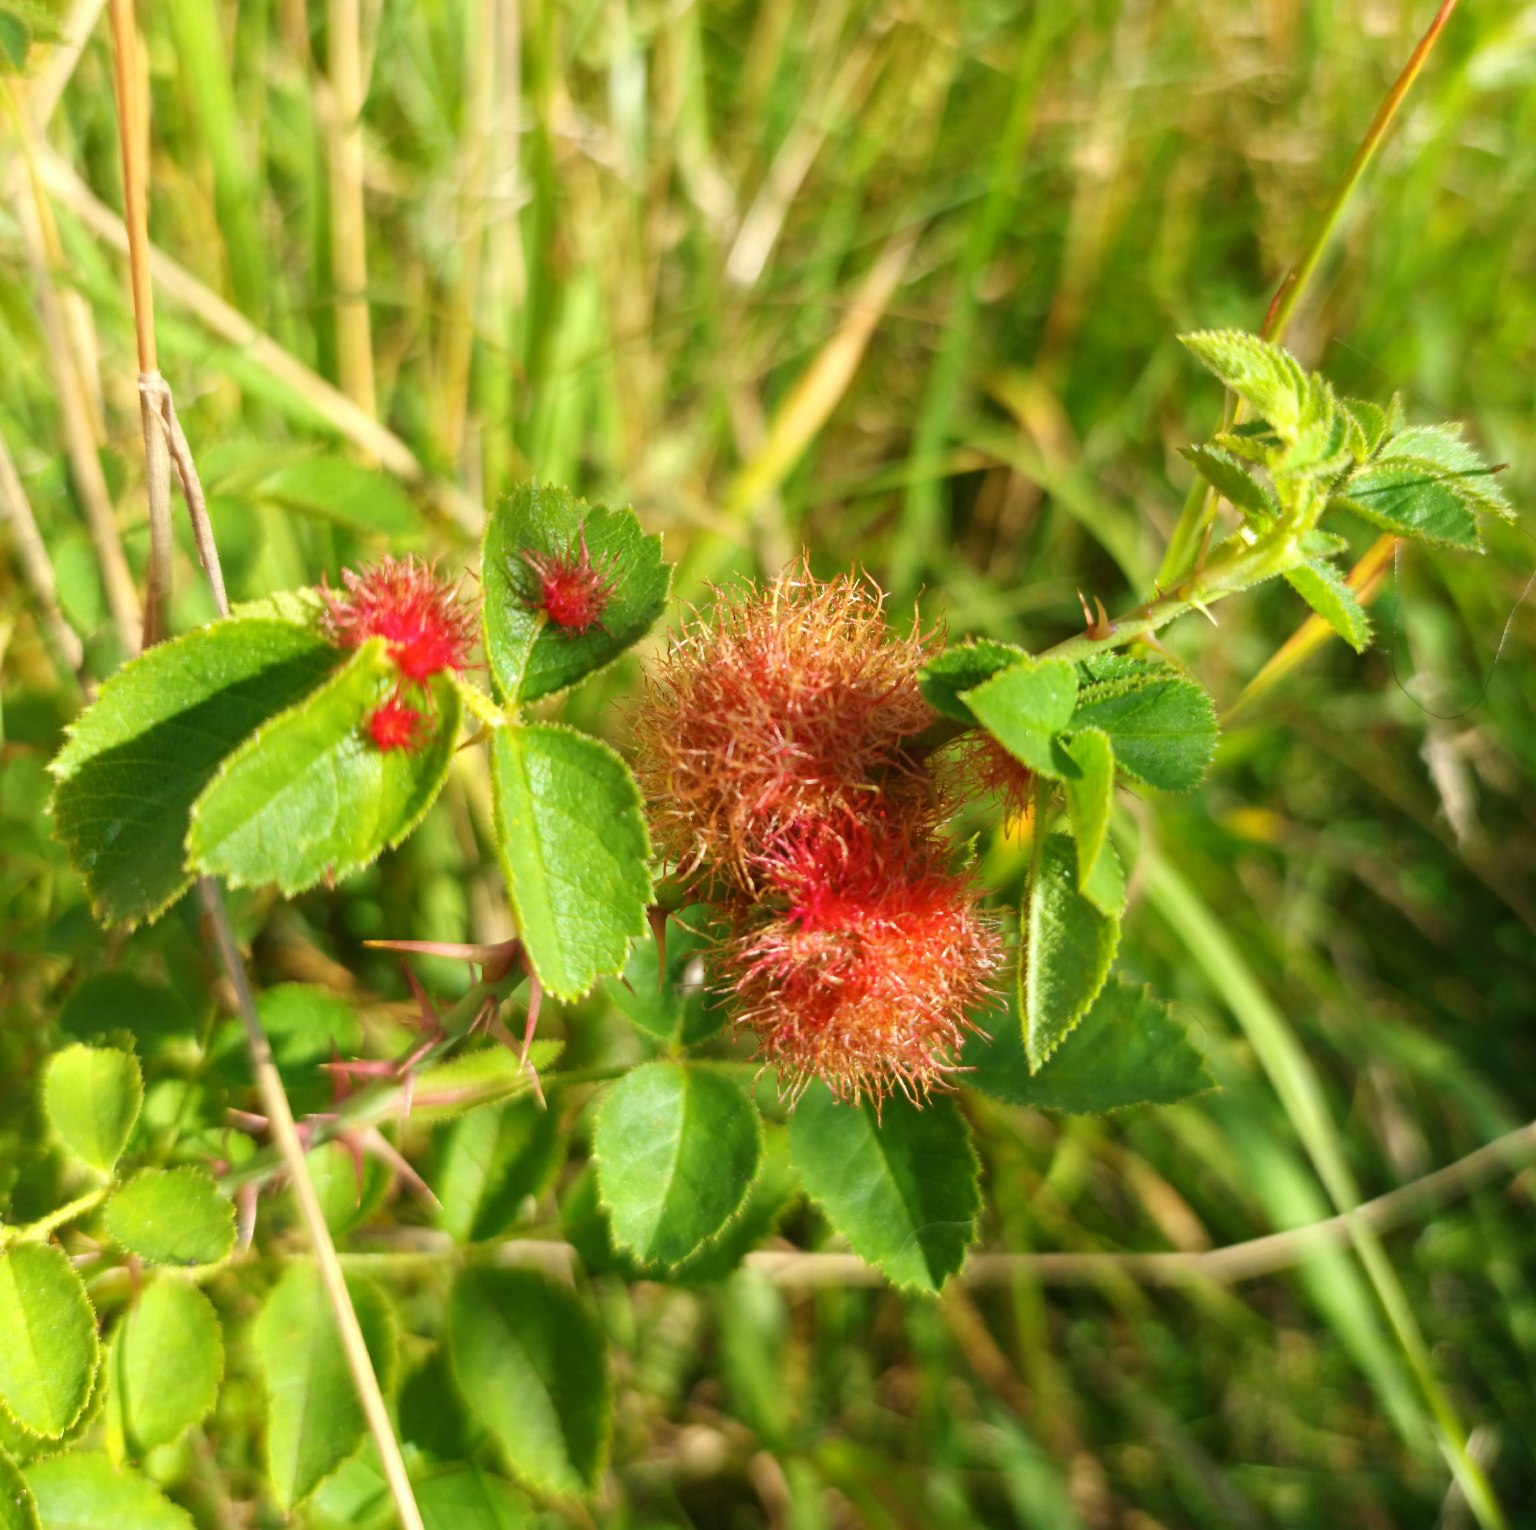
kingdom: Animalia
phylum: Arthropoda
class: Insecta
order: Hymenoptera
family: Cynipidae
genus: Diplolepis
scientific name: Diplolepis rosae
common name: Bedeguargalhveps
